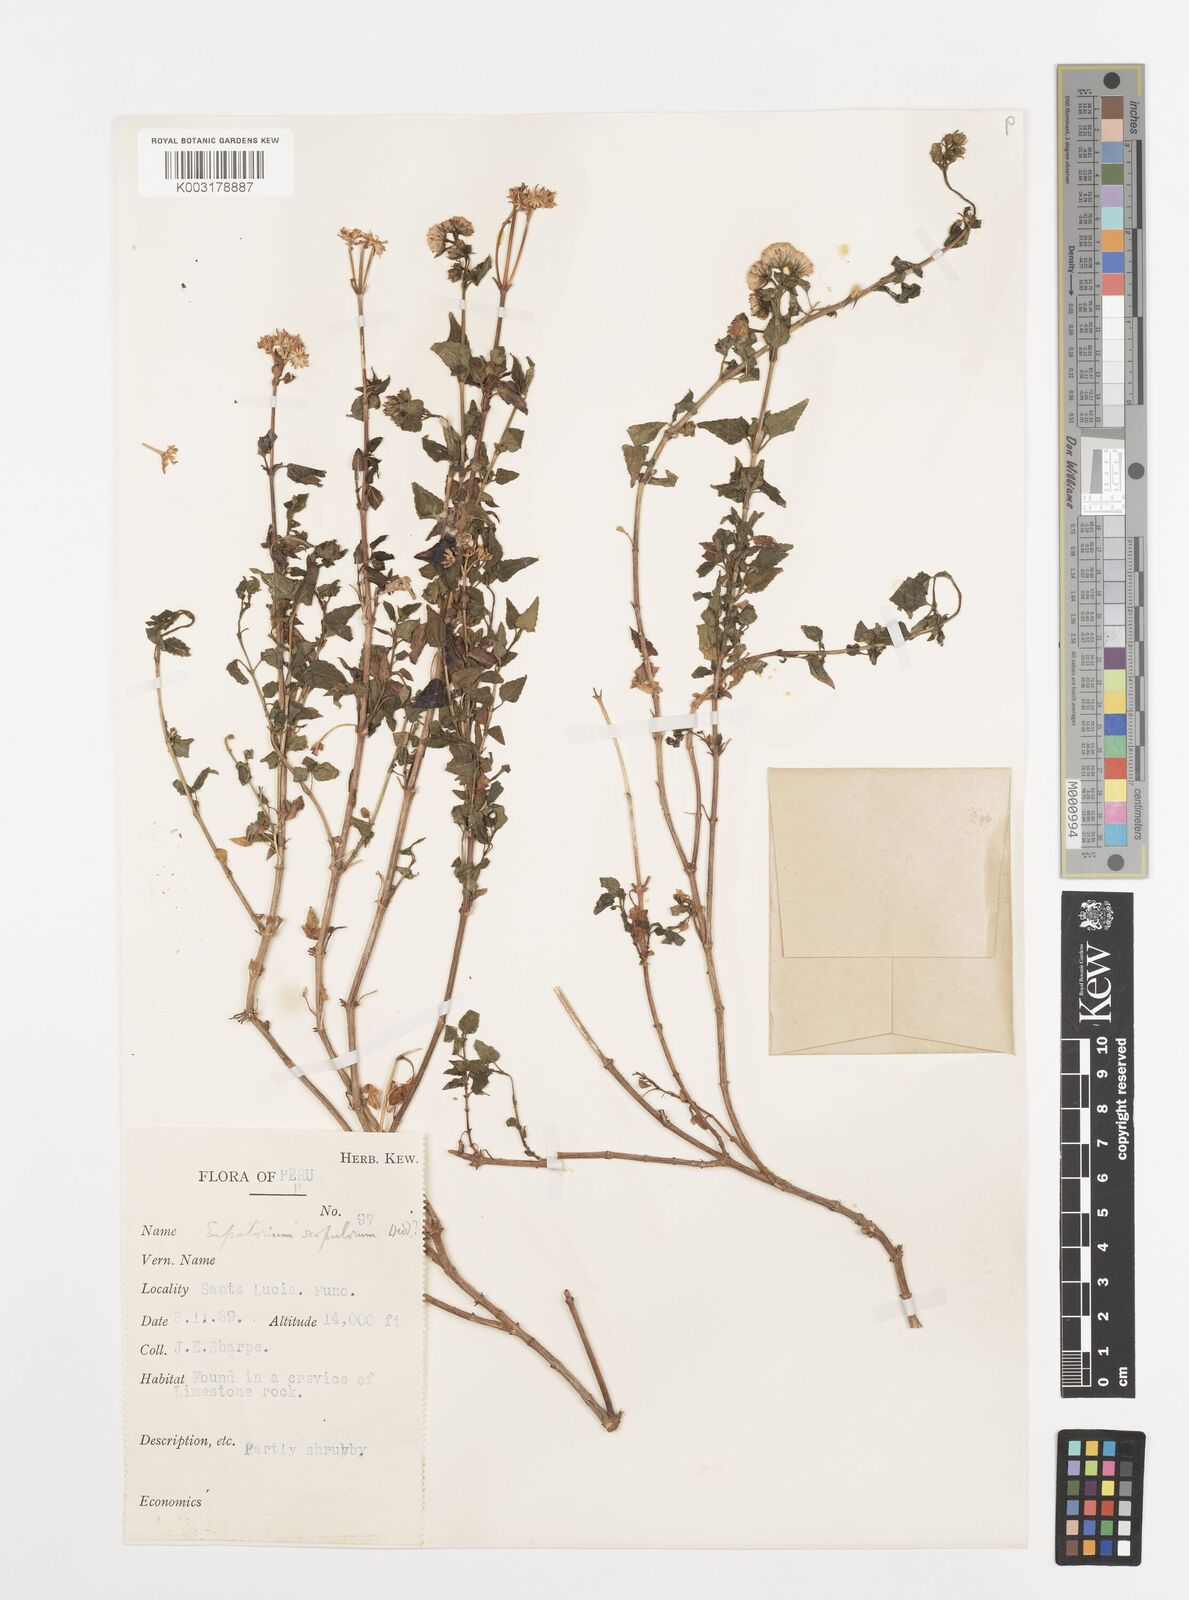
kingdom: Plantae
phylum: Tracheophyta
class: Magnoliopsida
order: Asterales
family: Asteraceae
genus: Ageratina
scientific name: Ageratina scopulorum
